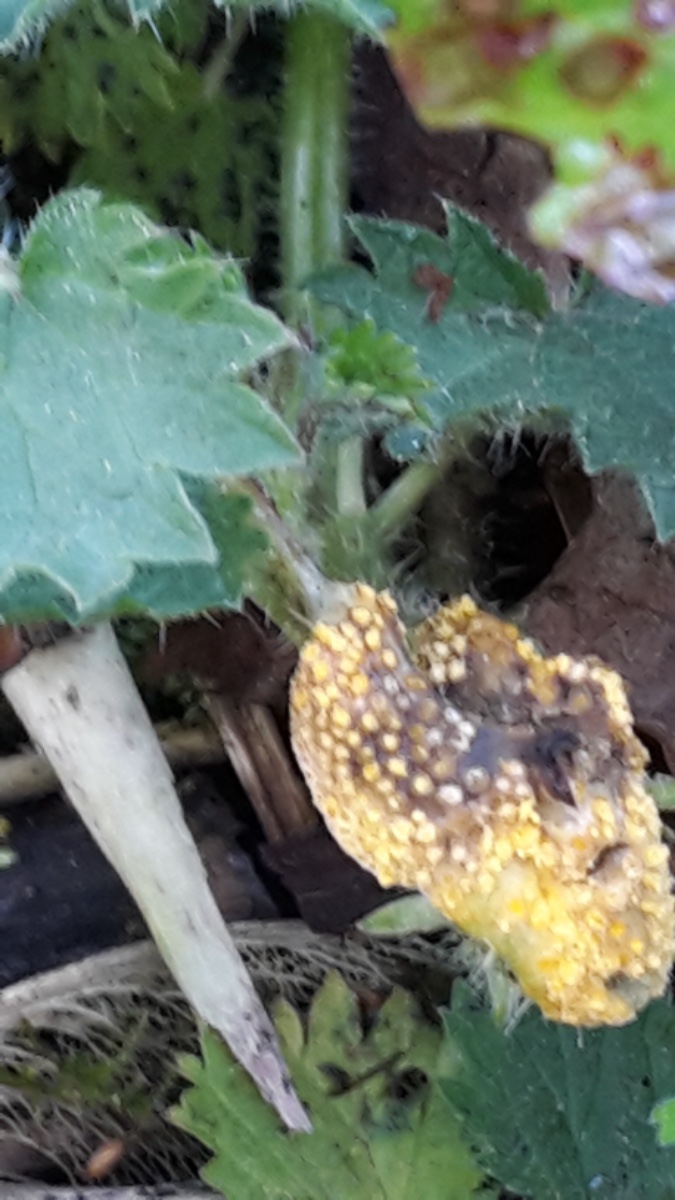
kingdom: Fungi
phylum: Basidiomycota
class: Pucciniomycetes
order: Pucciniales
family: Pucciniaceae
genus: Puccinia
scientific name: Puccinia urticata
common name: nældegalle-tvecellerust
